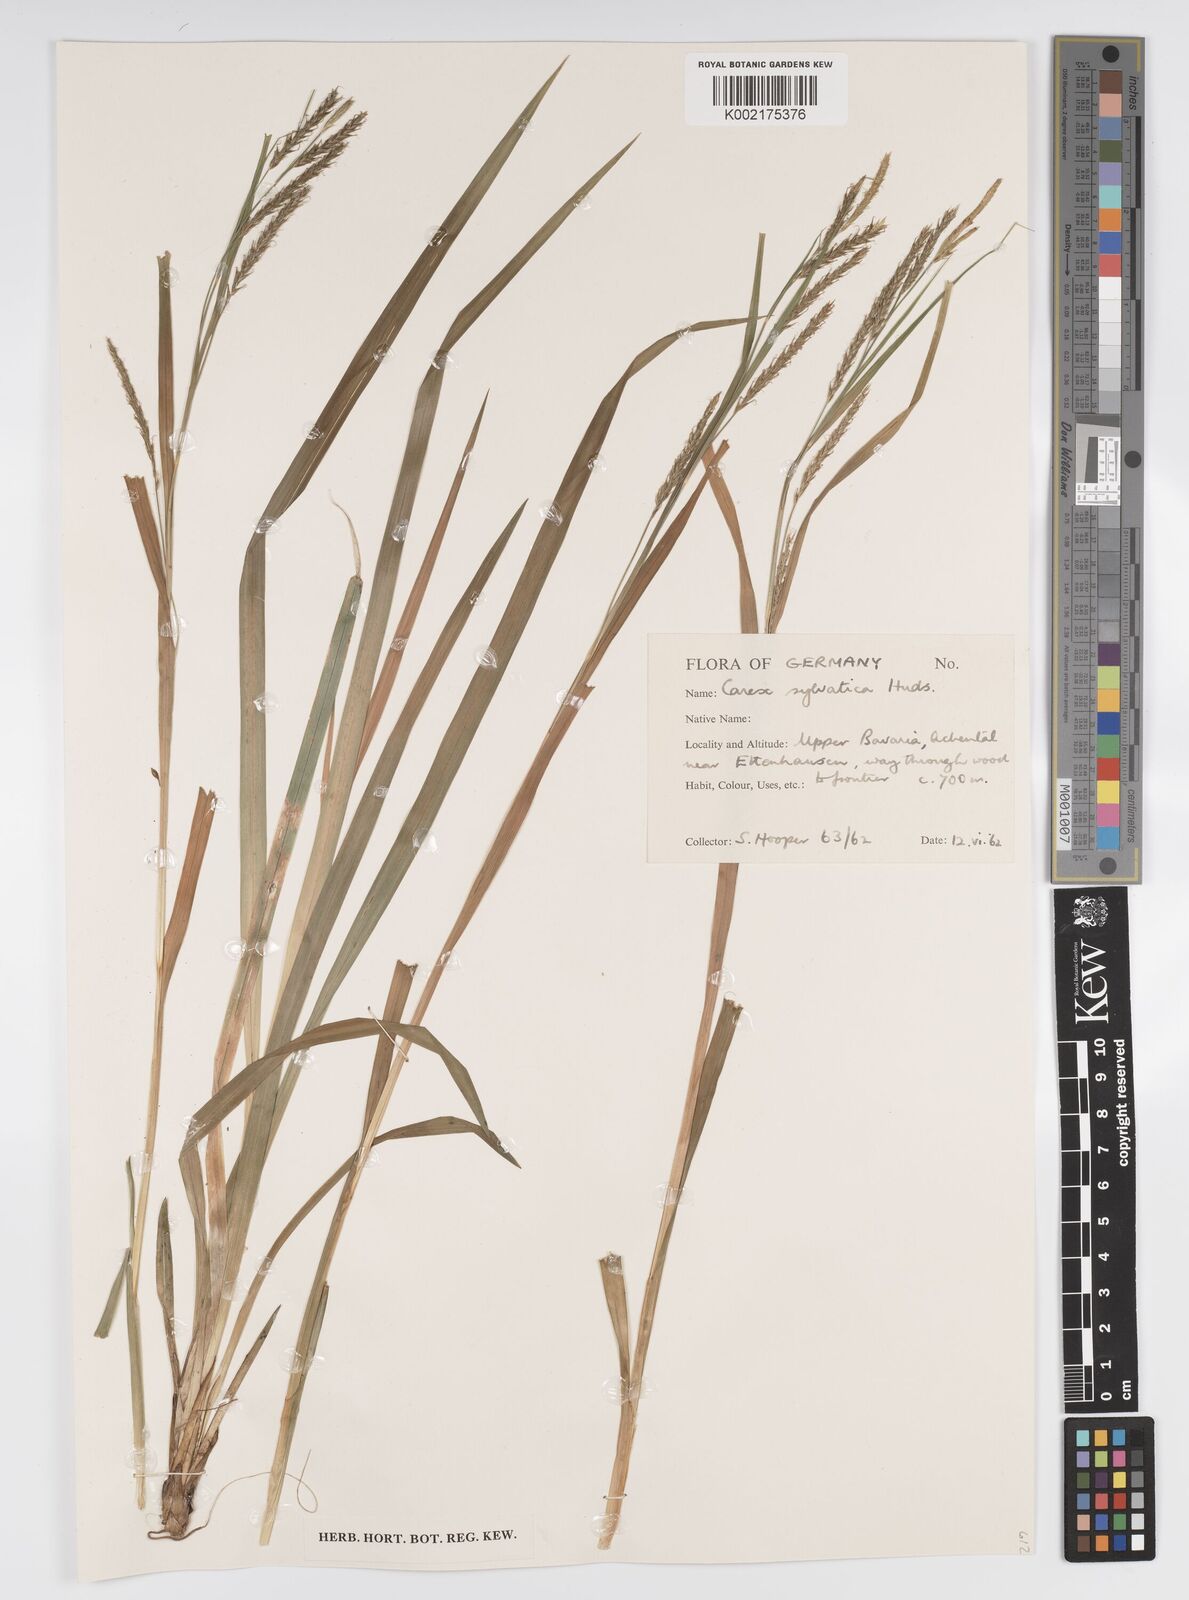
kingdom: Plantae
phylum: Tracheophyta
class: Liliopsida
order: Poales
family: Cyperaceae
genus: Carex
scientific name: Carex sylvatica
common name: Wood-sedge
